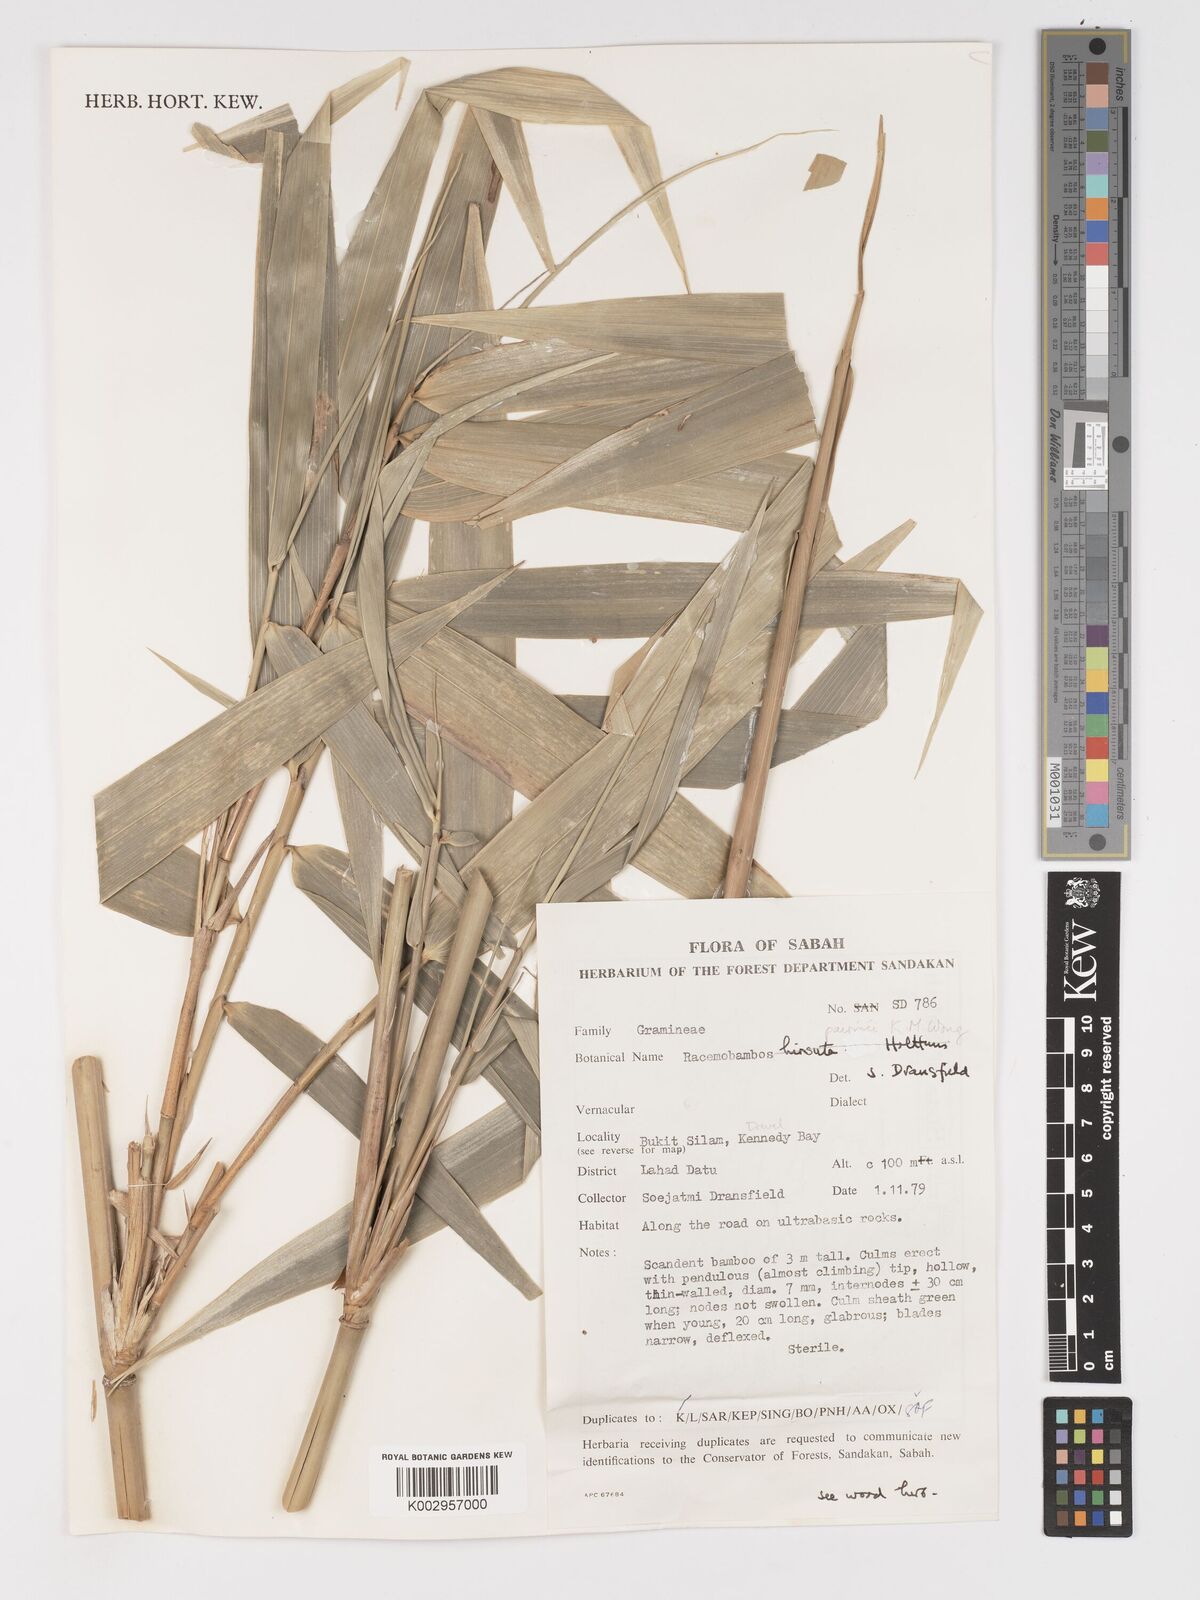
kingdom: Plantae
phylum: Tracheophyta
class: Liliopsida
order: Poales
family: Poaceae
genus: Racemobambos
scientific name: Racemobambos hirsuta
